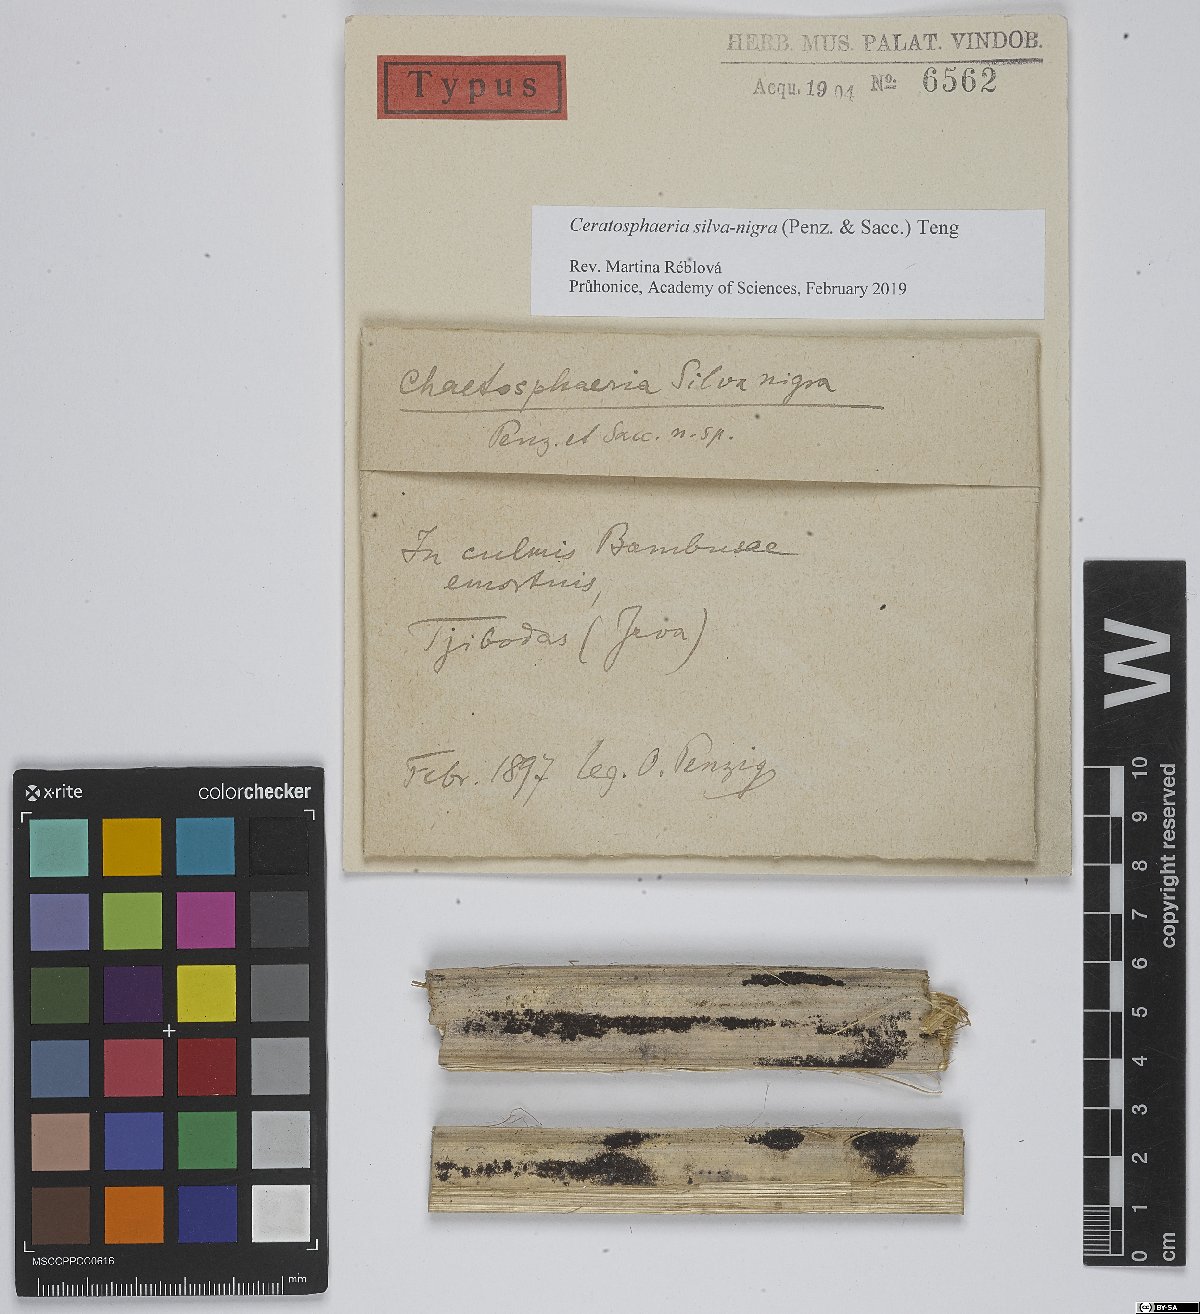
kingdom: Fungi
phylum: Ascomycota
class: Sordariomycetes
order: Magnaporthales
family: Ceratosphaeriaceae
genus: Ceratosphaeria
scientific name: Ceratosphaeria silva-nigra
